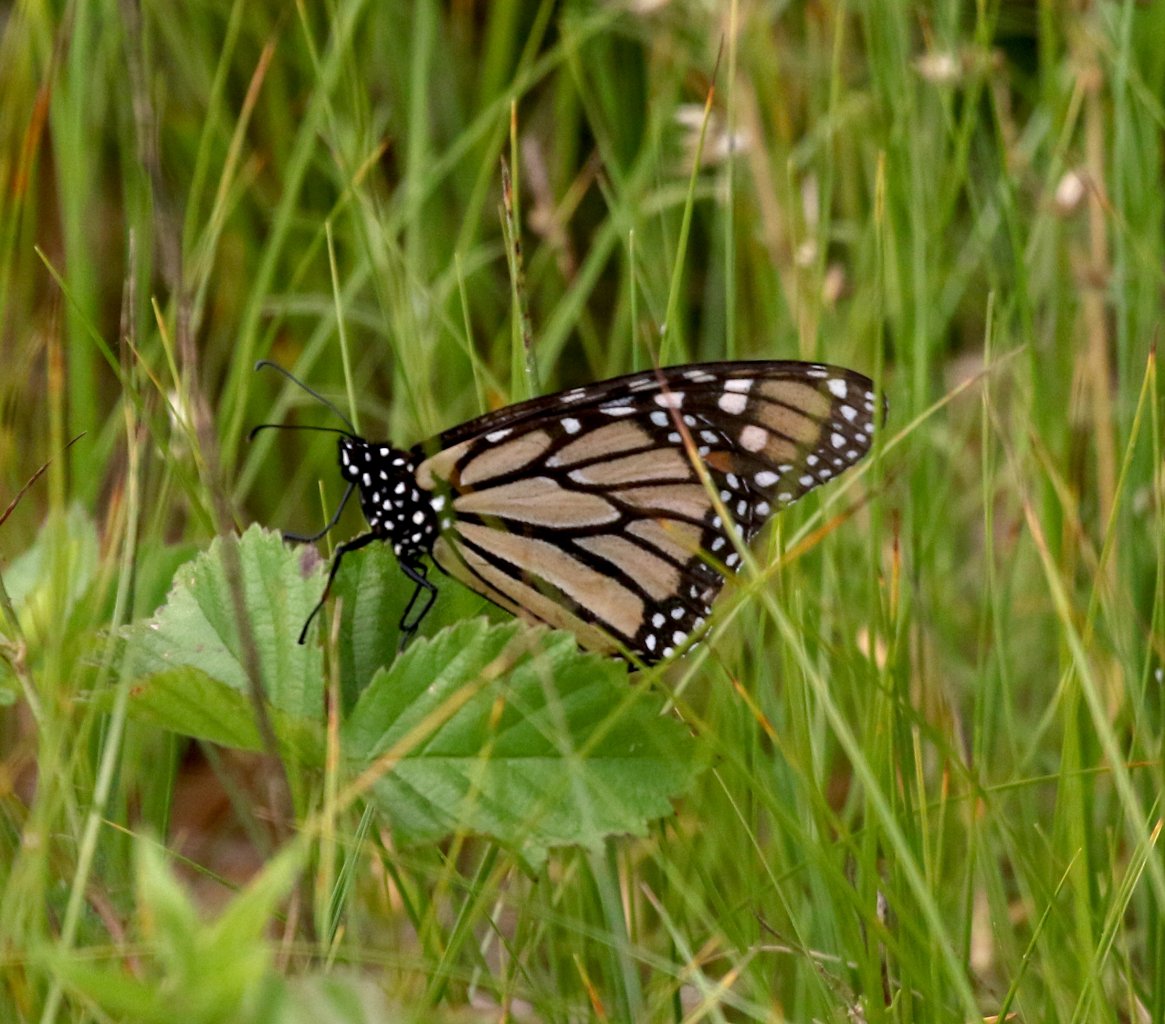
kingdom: Animalia
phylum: Arthropoda
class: Insecta
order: Lepidoptera
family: Nymphalidae
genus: Danaus
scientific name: Danaus plexippus
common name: Monarch
